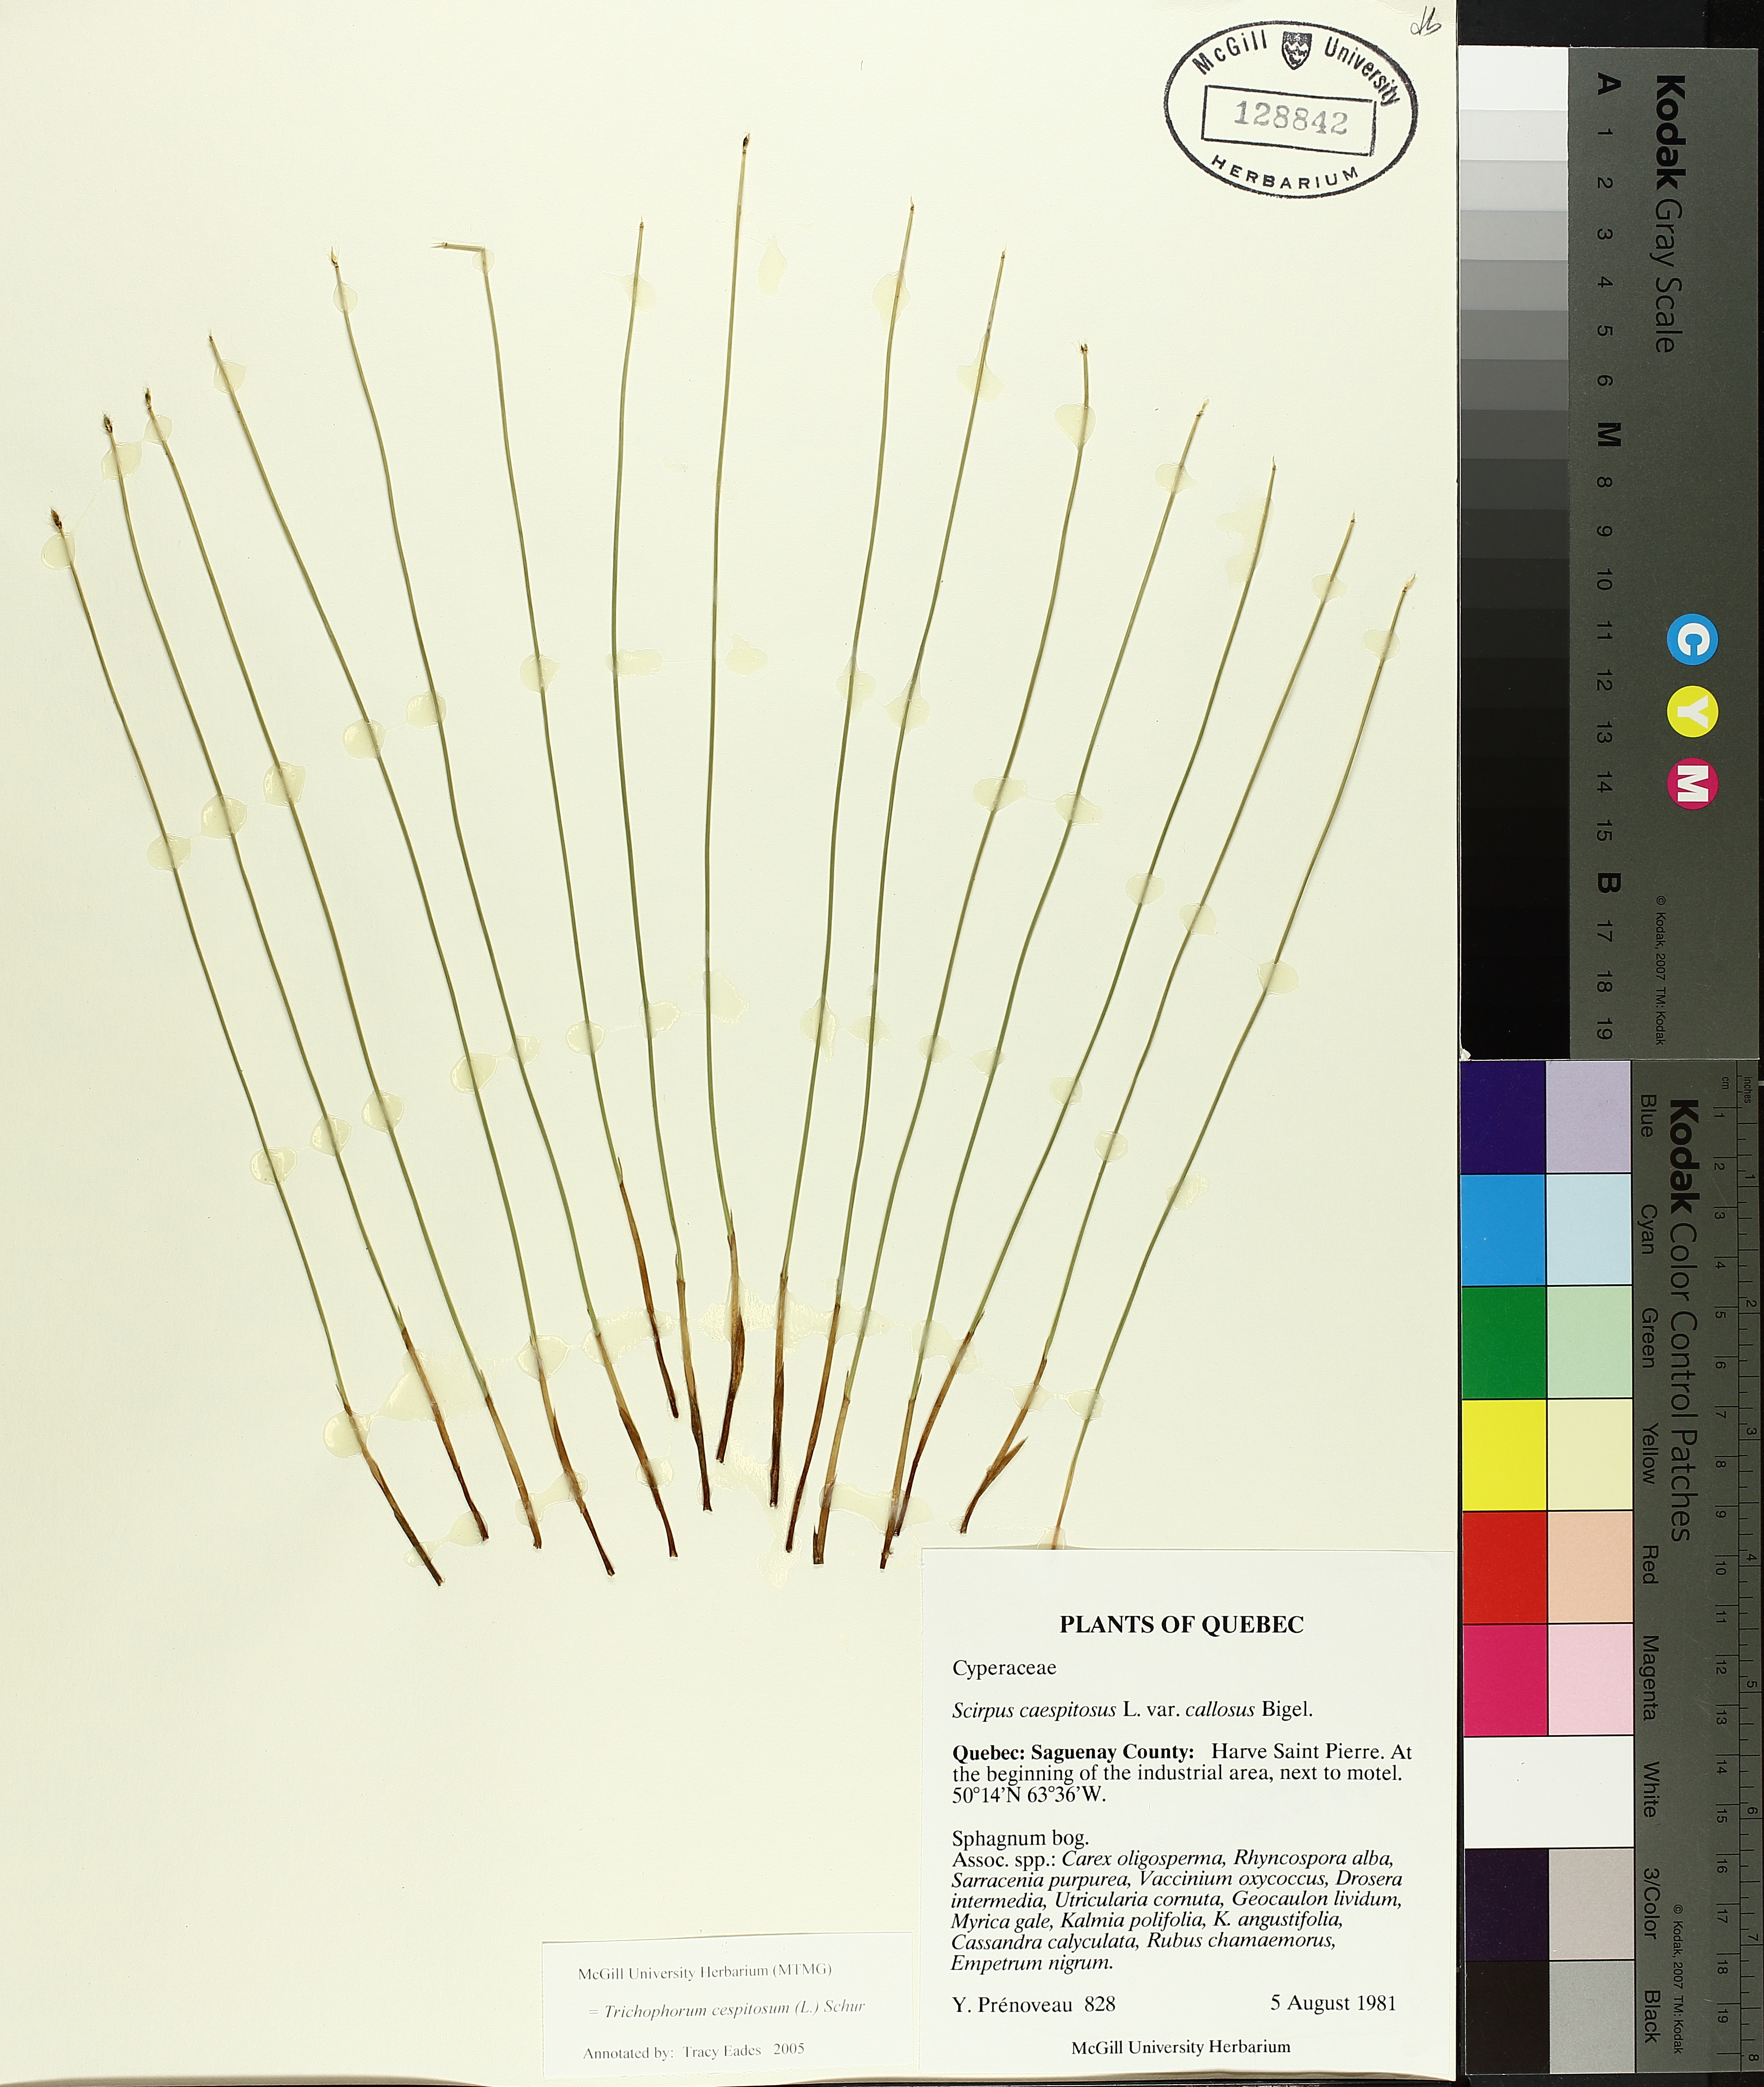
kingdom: Plantae
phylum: Tracheophyta
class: Liliopsida
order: Poales
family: Cyperaceae
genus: Trichophorum
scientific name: Trichophorum cespitosum
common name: Cespitose bulrush
